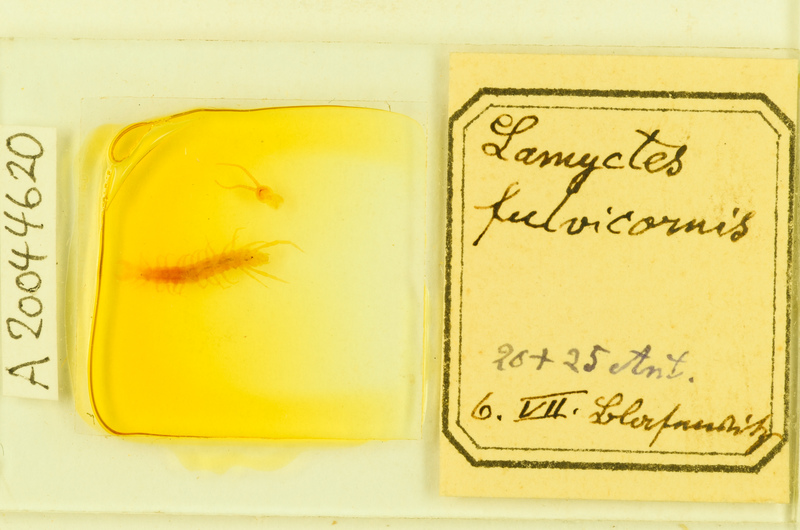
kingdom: Animalia
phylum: Arthropoda
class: Chilopoda
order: Lithobiomorpha
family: Henicopidae
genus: Lamyctes
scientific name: Lamyctes emarginatus
